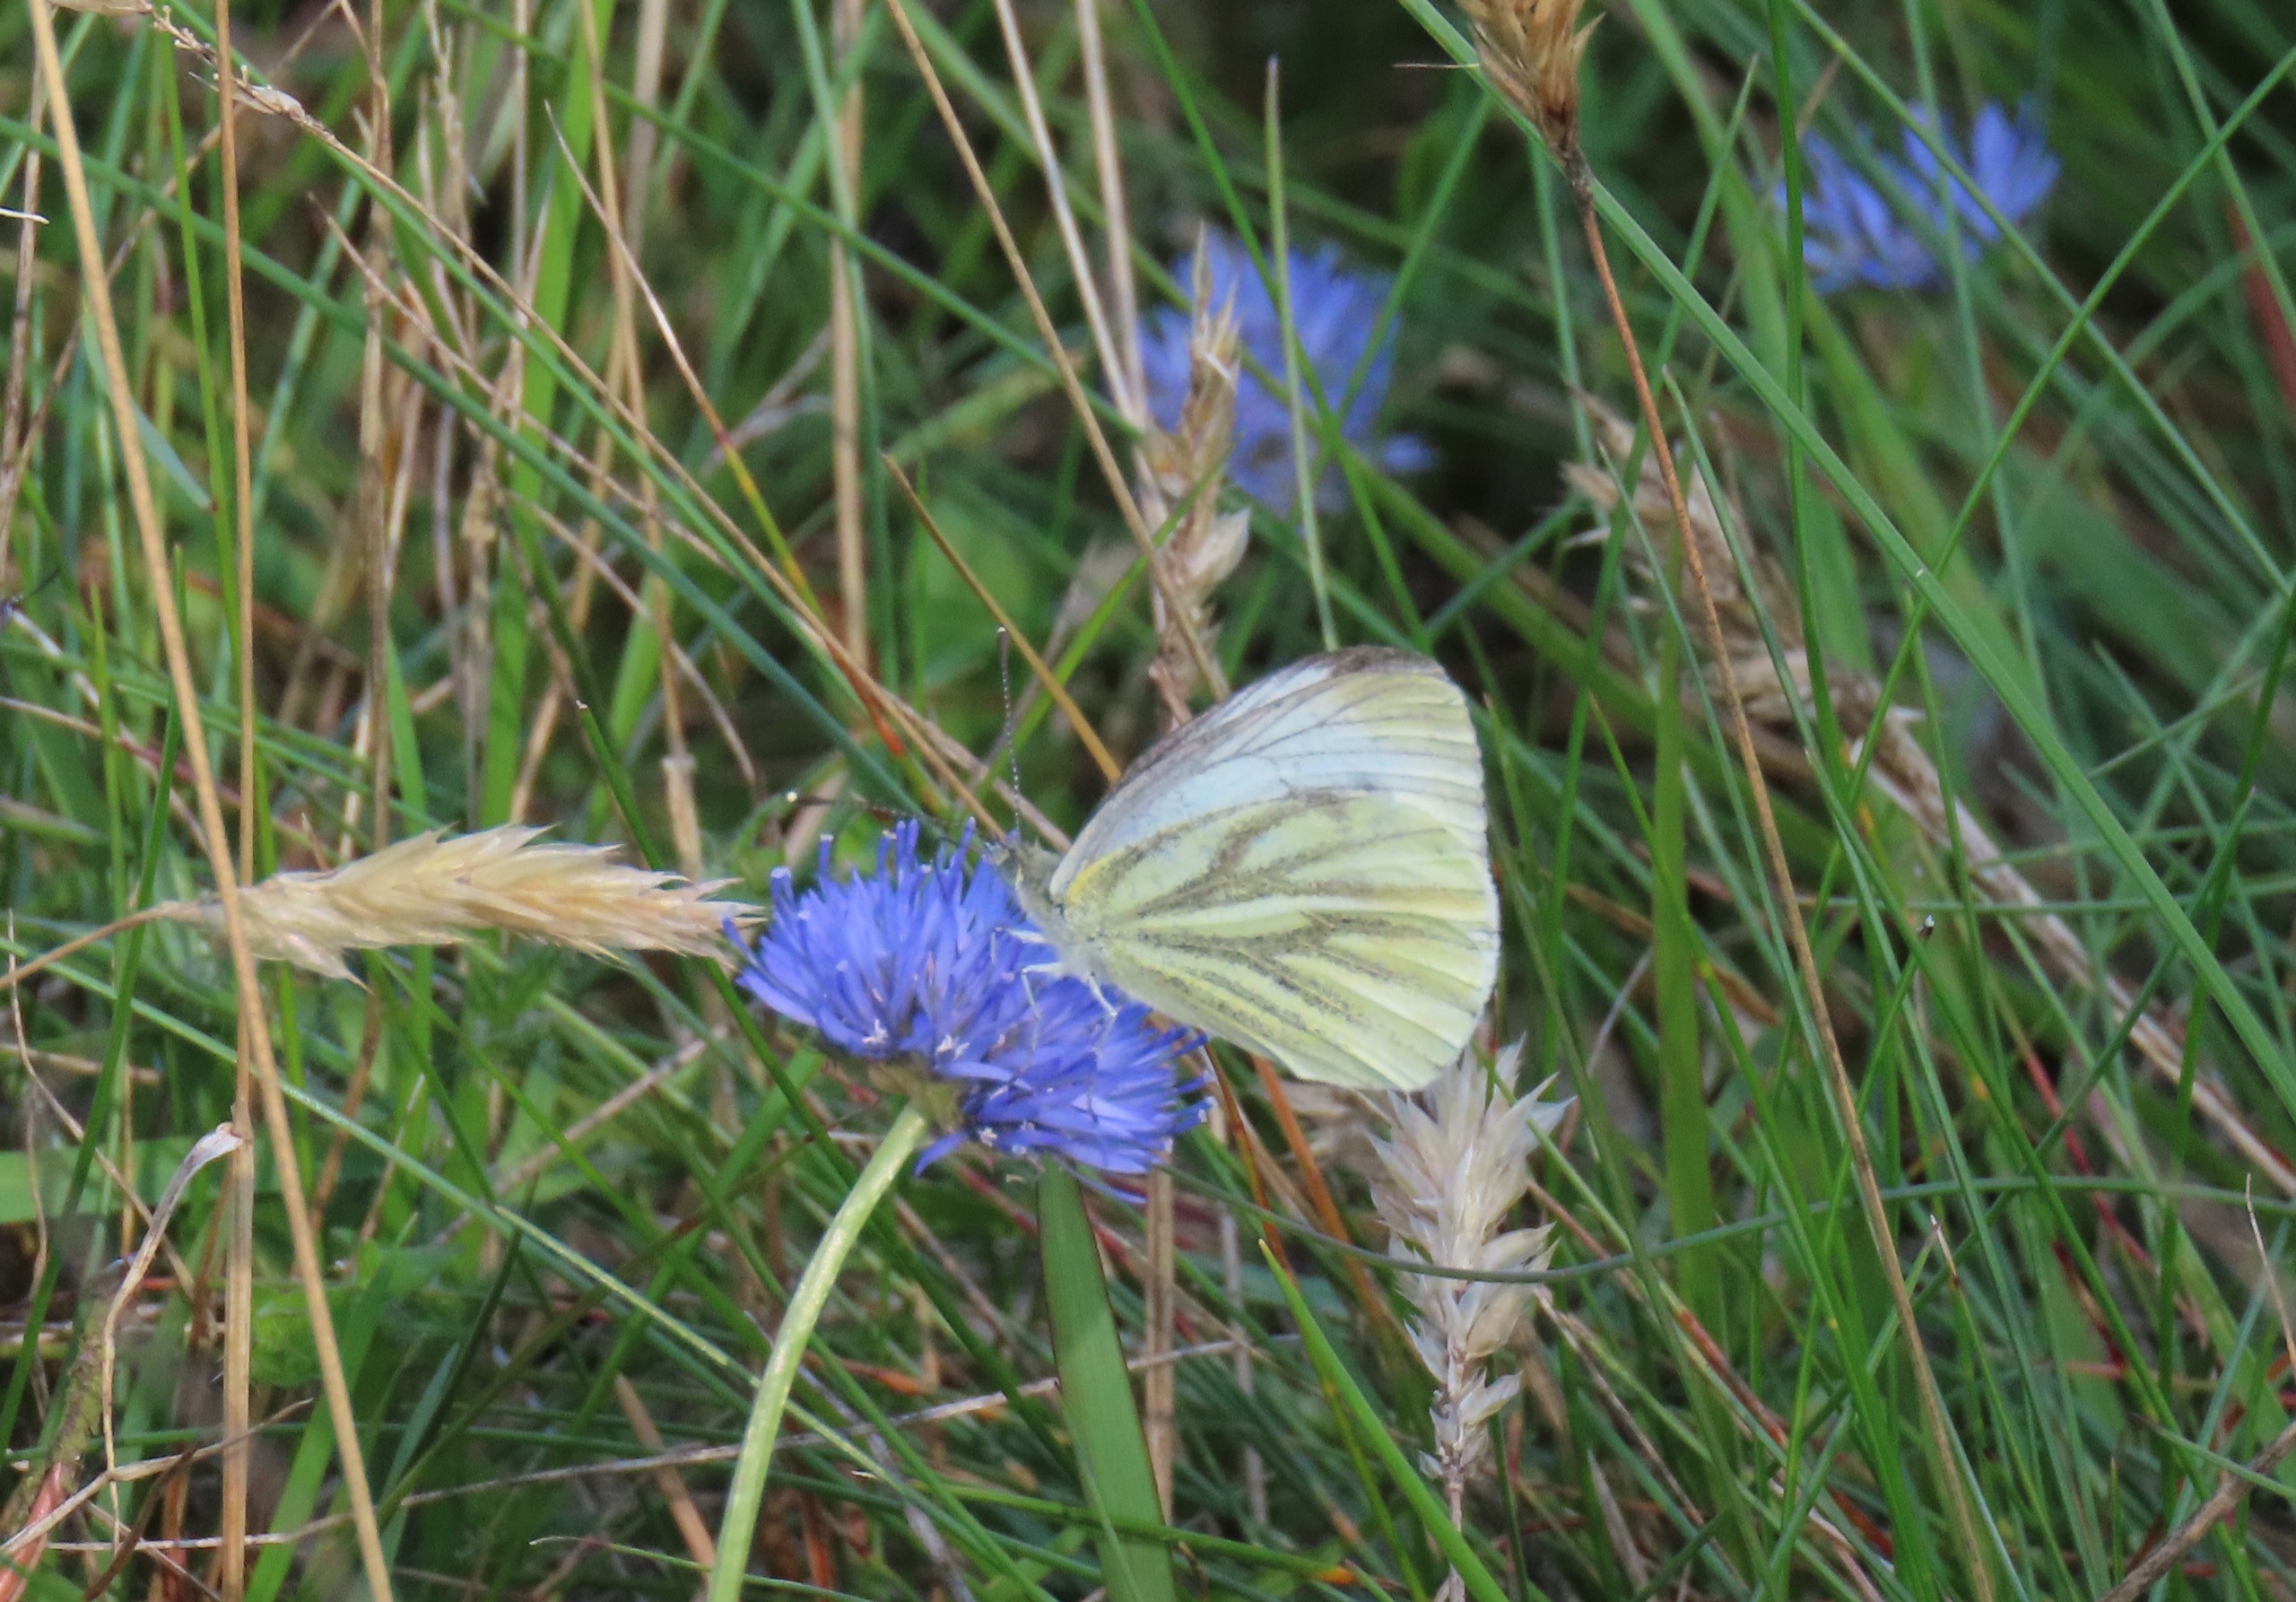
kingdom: Animalia
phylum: Arthropoda
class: Insecta
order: Lepidoptera
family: Pieridae
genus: Pieris
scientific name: Pieris napi
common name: Grønåret kålsommerfugl
